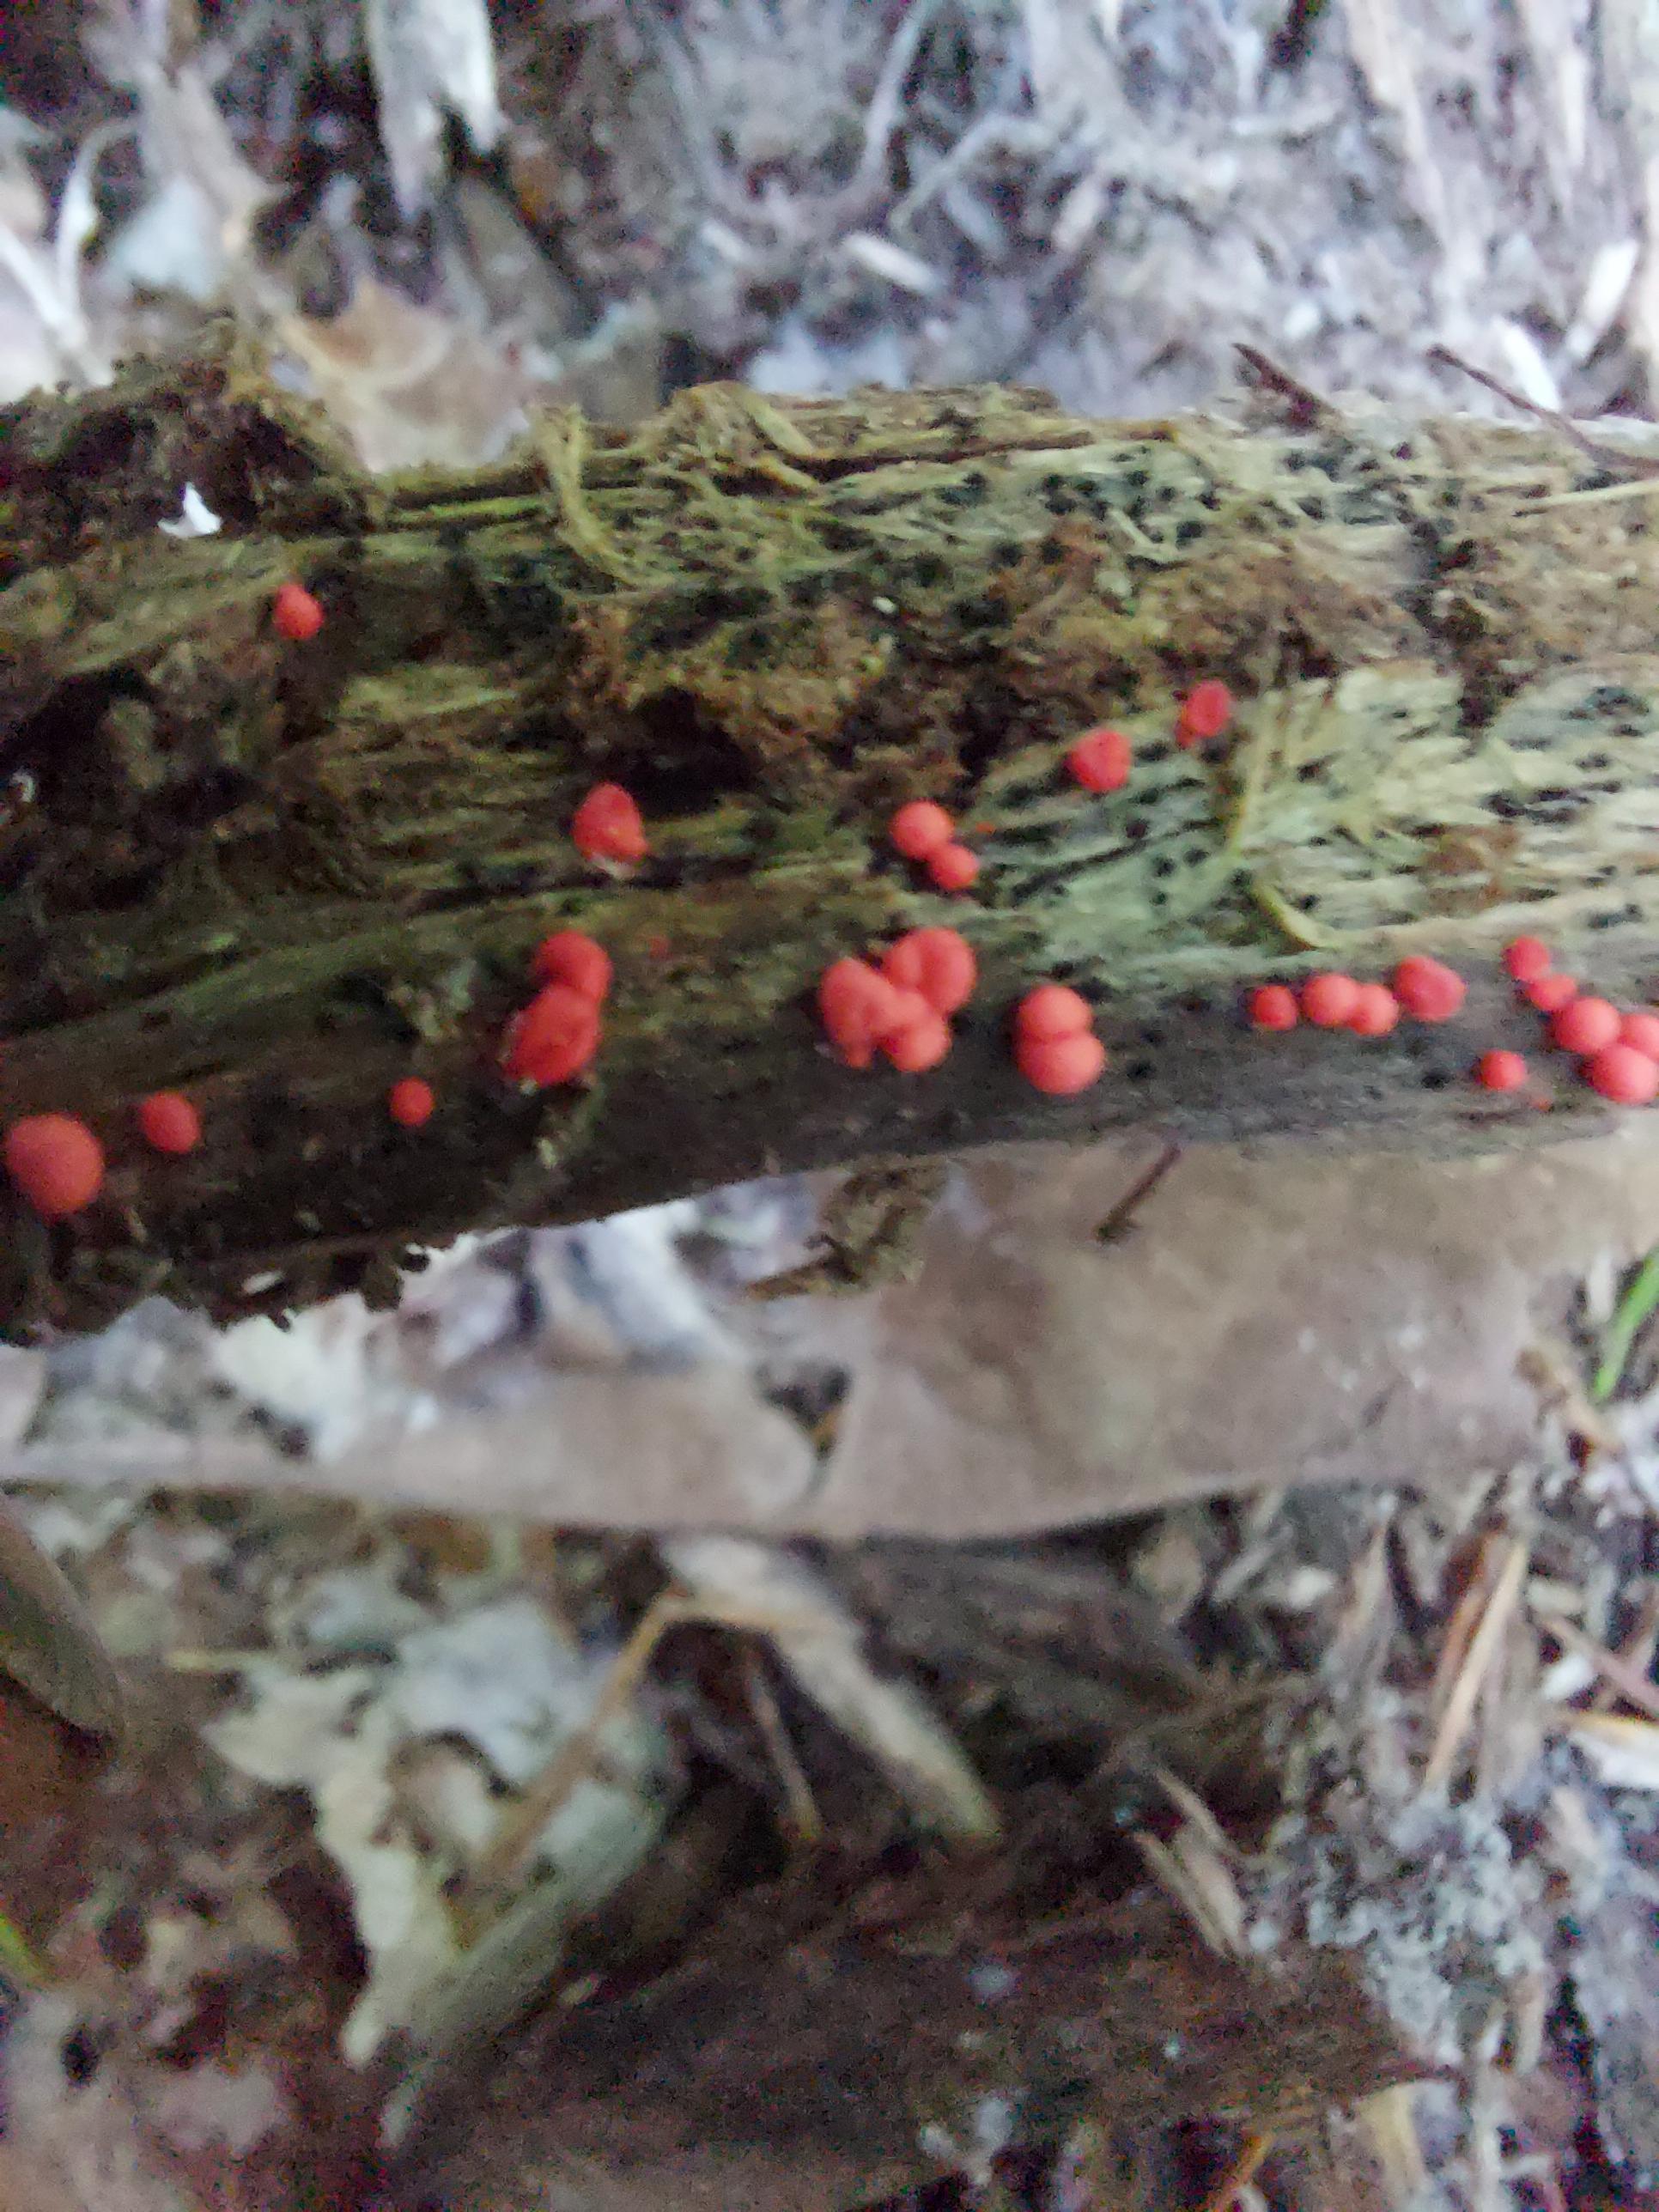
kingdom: Protozoa
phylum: Mycetozoa
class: Myxomycetes
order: Cribrariales
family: Tubiferaceae
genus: Lycogala
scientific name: Lycogala
